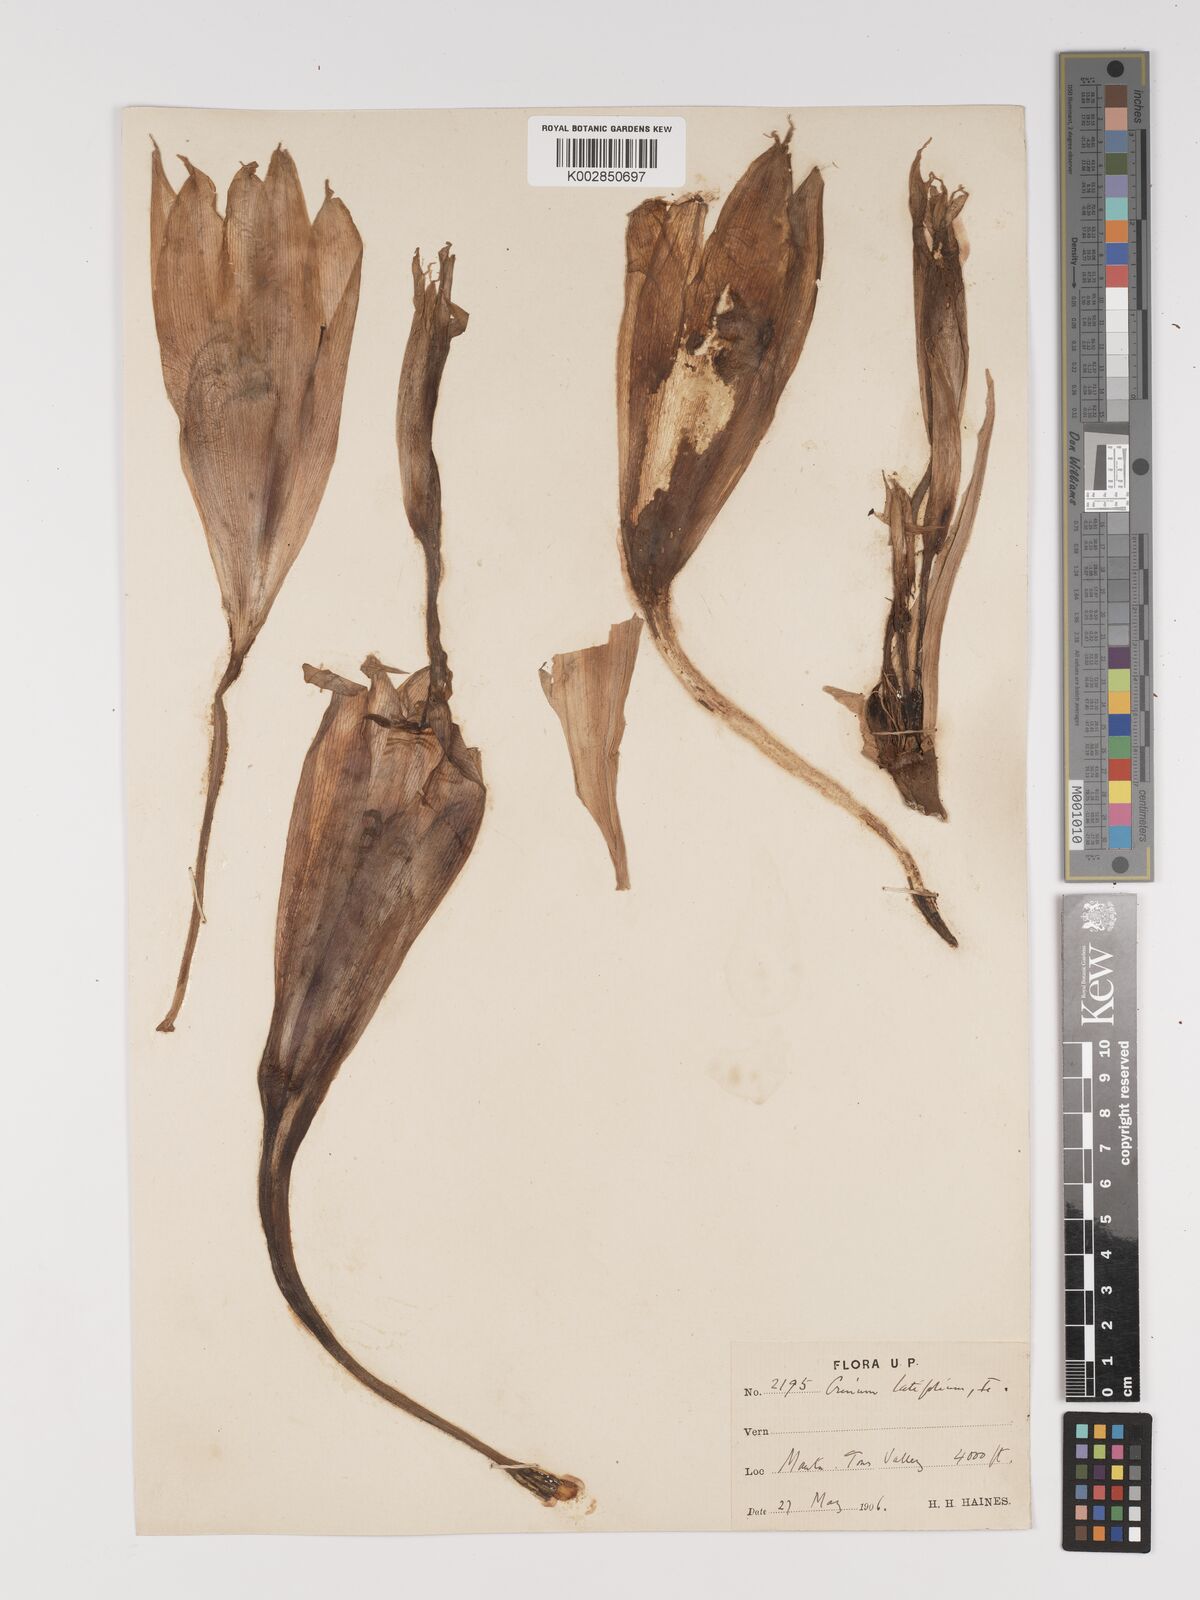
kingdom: Plantae
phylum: Tracheophyta
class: Liliopsida
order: Asparagales
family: Amaryllidaceae
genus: Crinum
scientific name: Crinum latifolium
